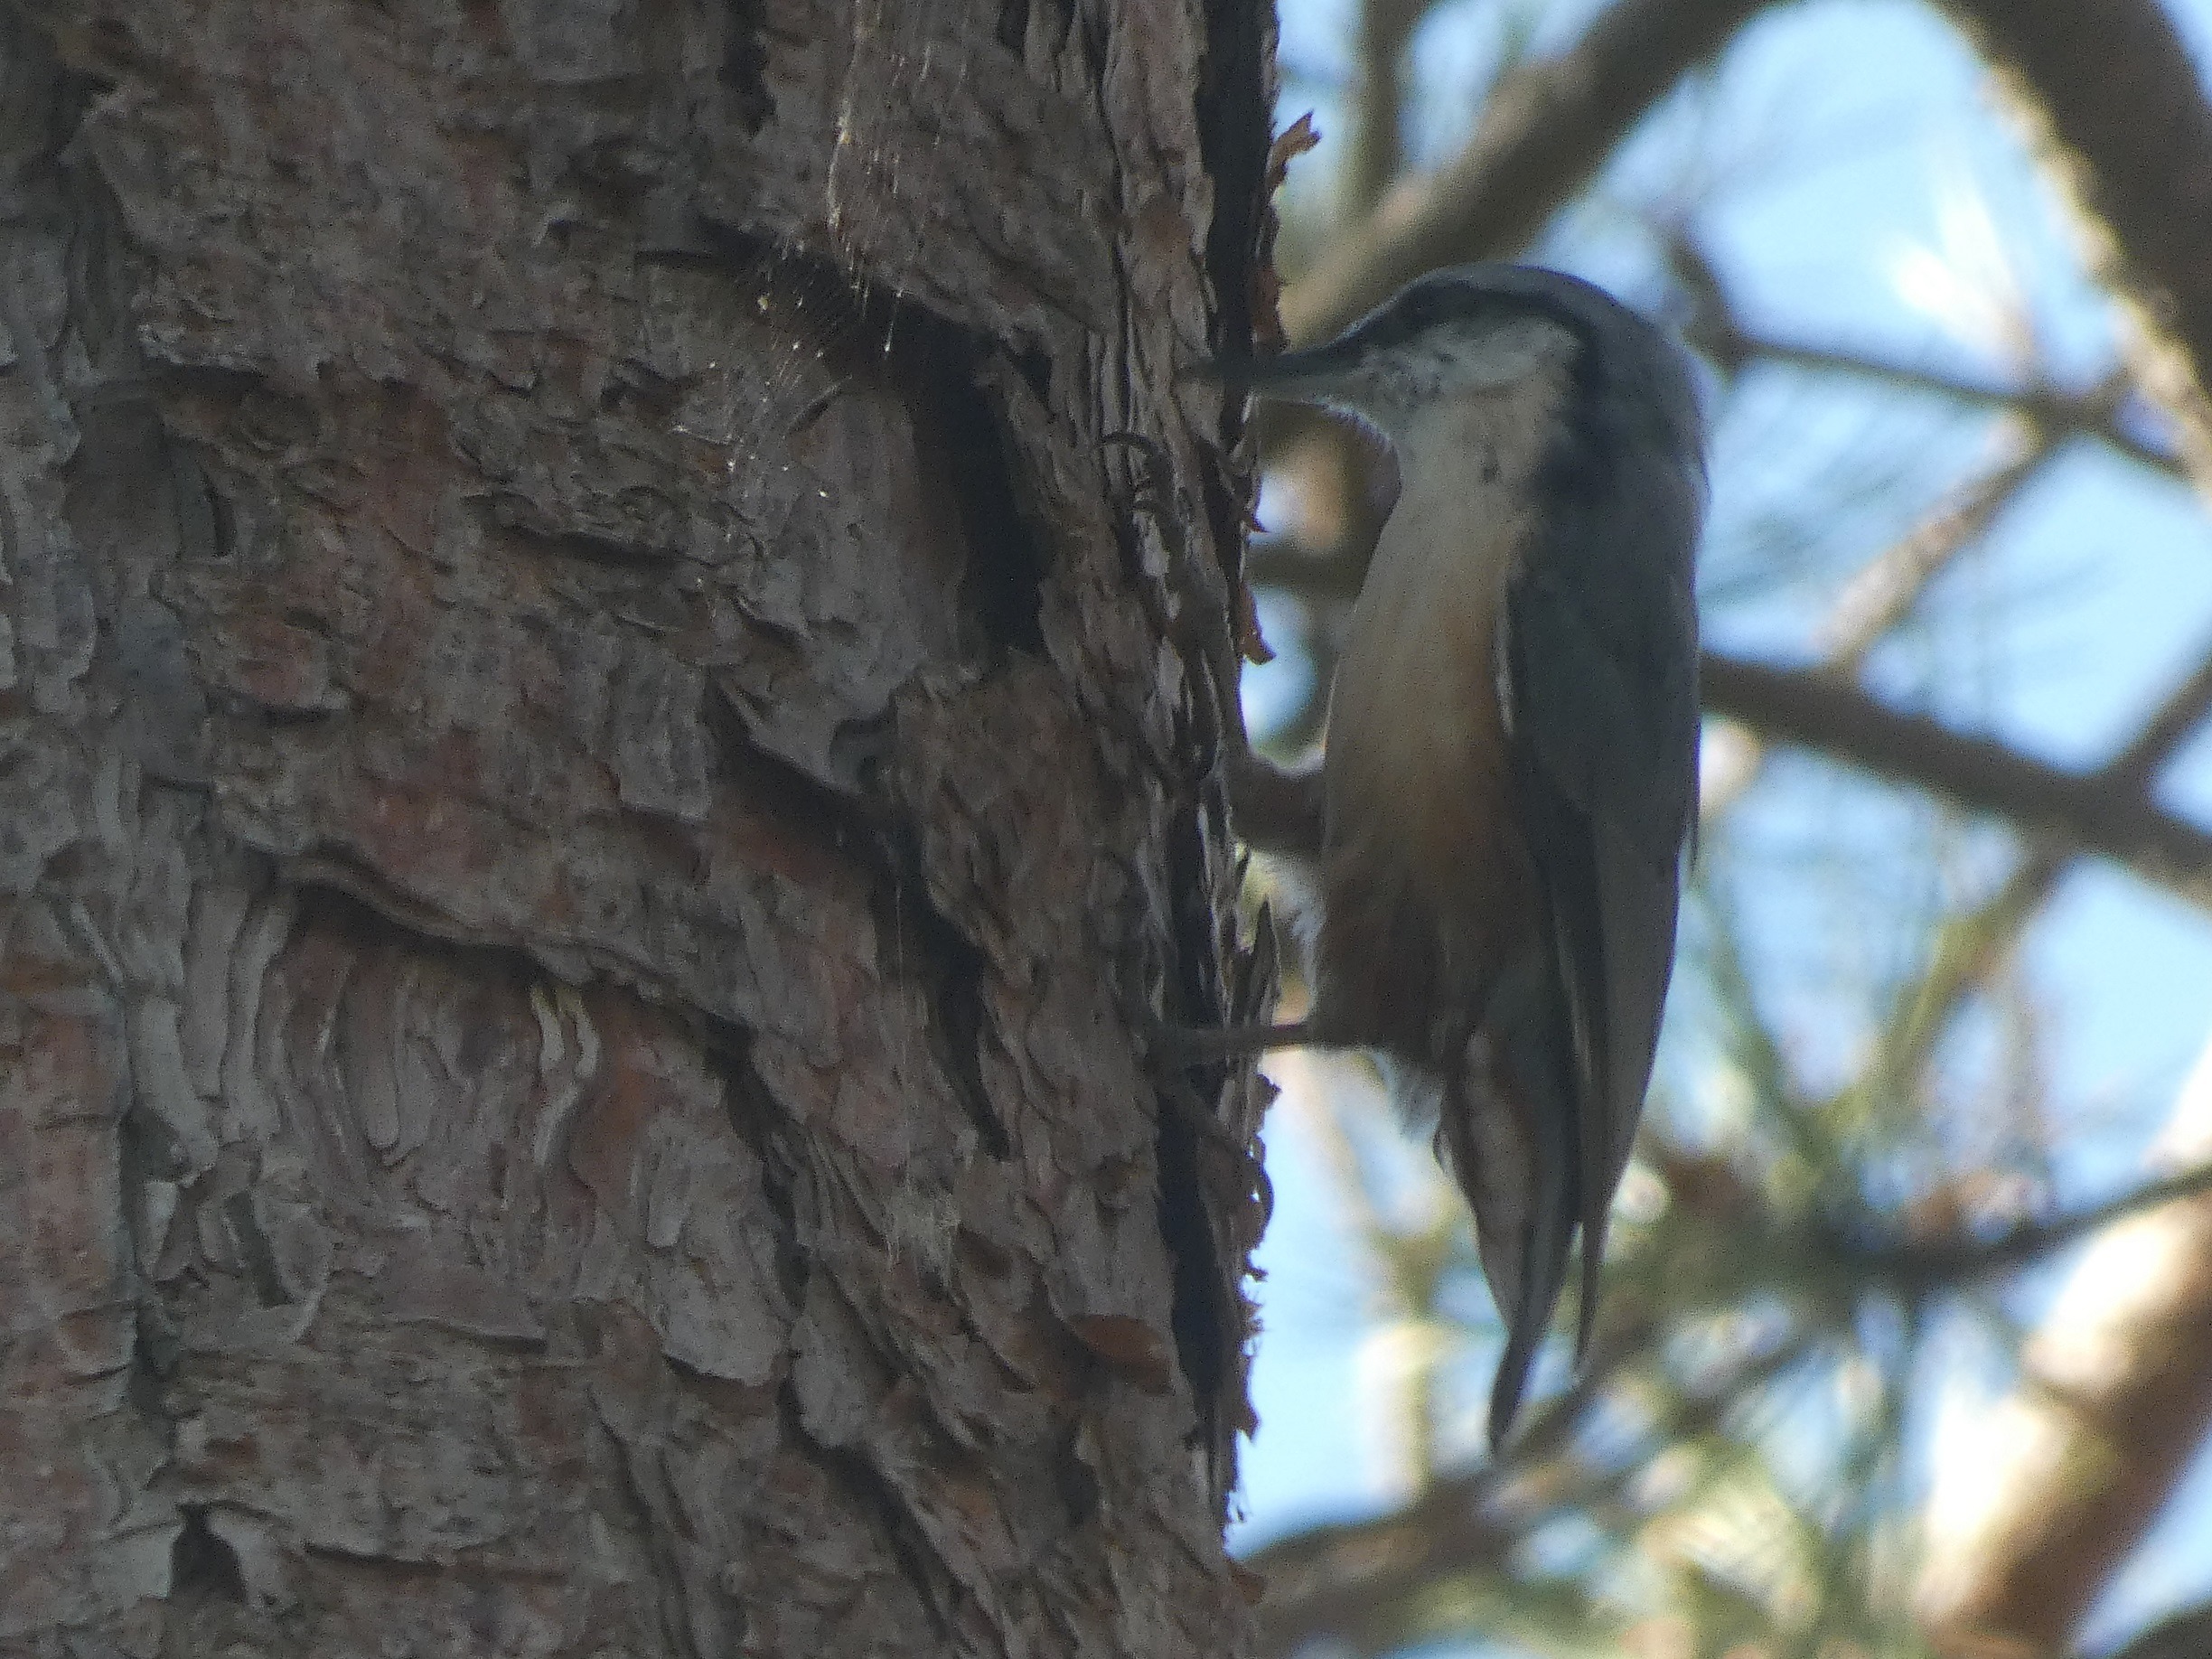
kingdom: Animalia
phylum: Chordata
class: Aves
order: Passeriformes
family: Sittidae
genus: Sitta
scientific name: Sitta europaea
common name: Spætmejse
